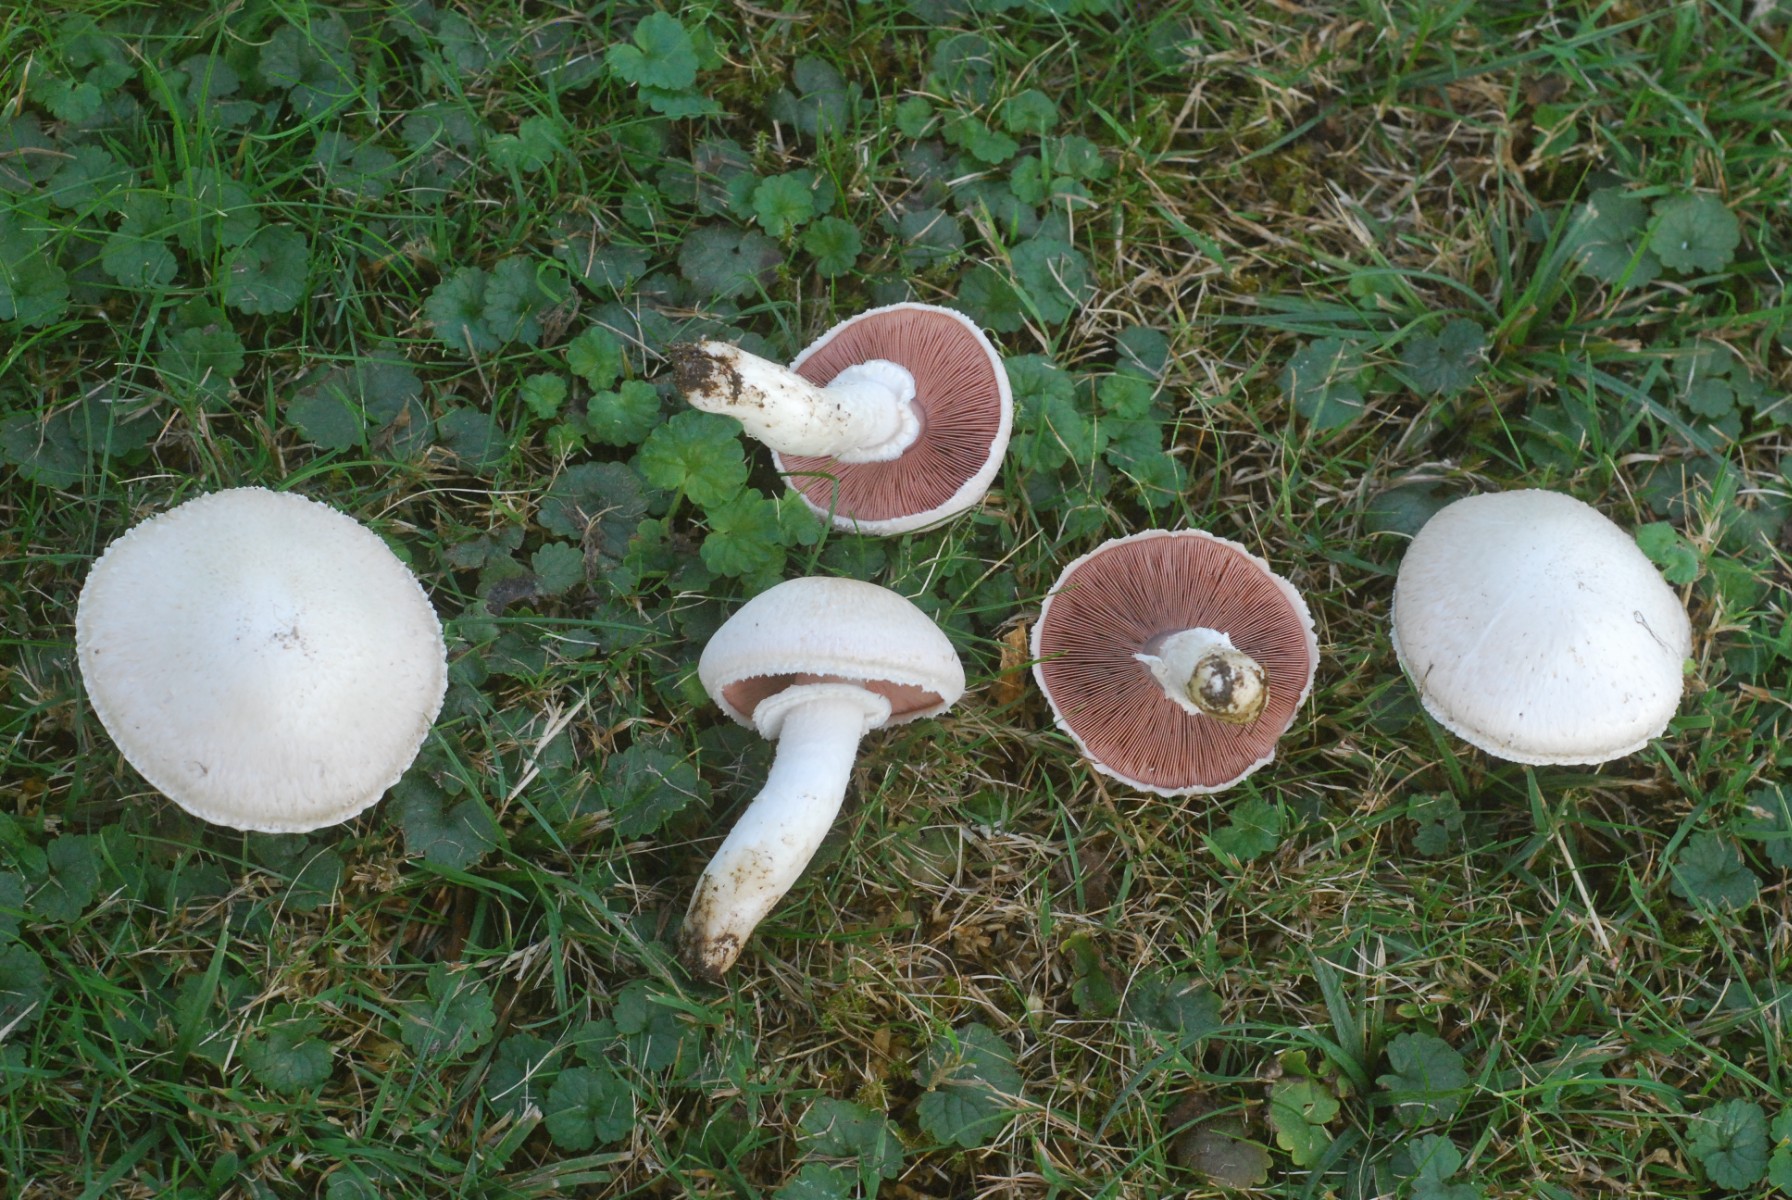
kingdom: Fungi
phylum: Basidiomycota
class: Agaricomycetes
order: Agaricales
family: Agaricaceae
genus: Agaricus
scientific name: Agaricus campestris
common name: mark-champignon
